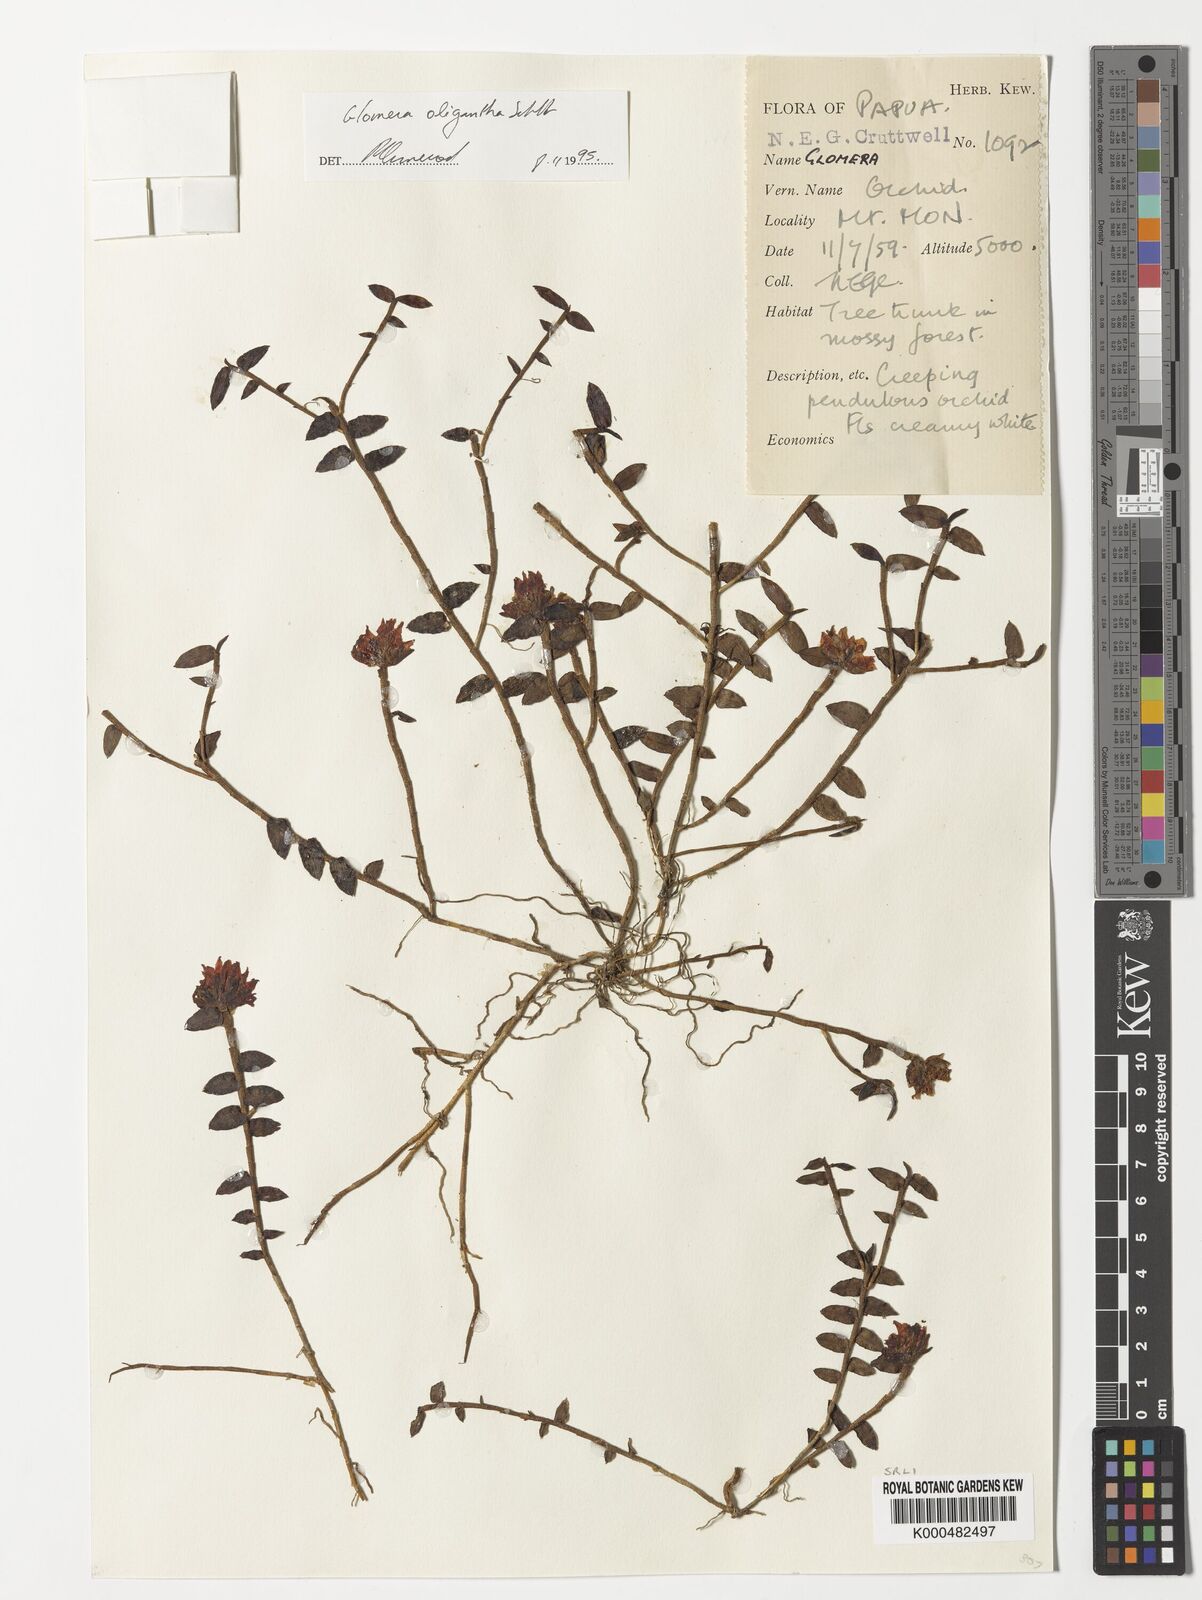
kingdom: Plantae
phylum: Tracheophyta
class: Liliopsida
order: Asparagales
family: Orchidaceae
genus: Glomera
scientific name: Glomera oligantha
